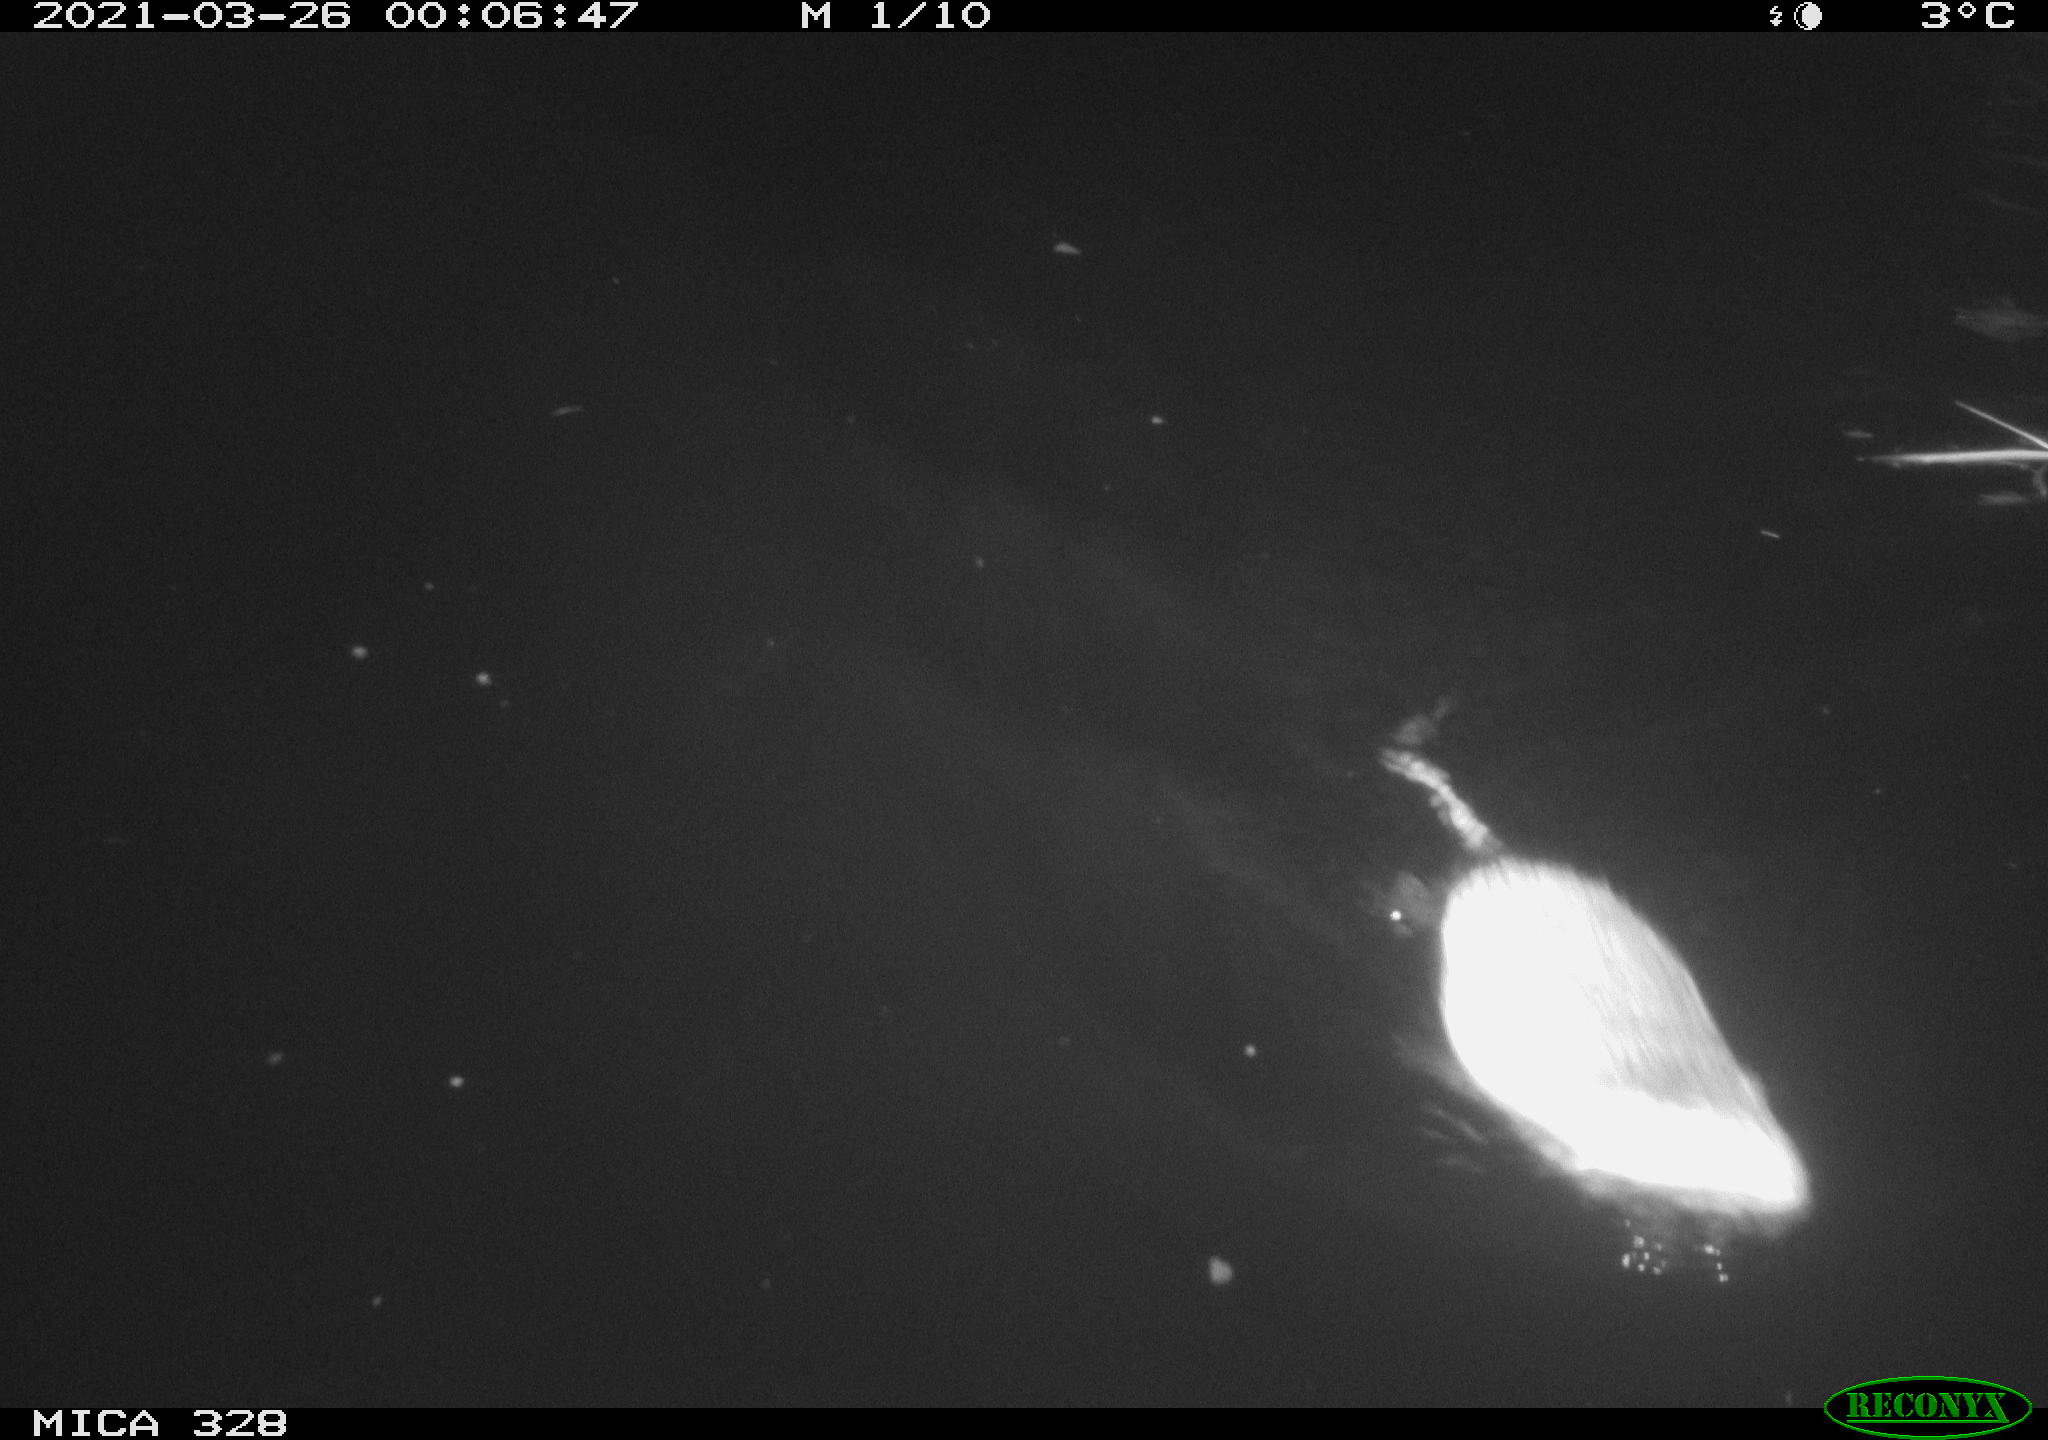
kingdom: Animalia
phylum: Chordata
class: Mammalia
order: Rodentia
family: Cricetidae
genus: Ondatra
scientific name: Ondatra zibethicus
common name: Muskrat
